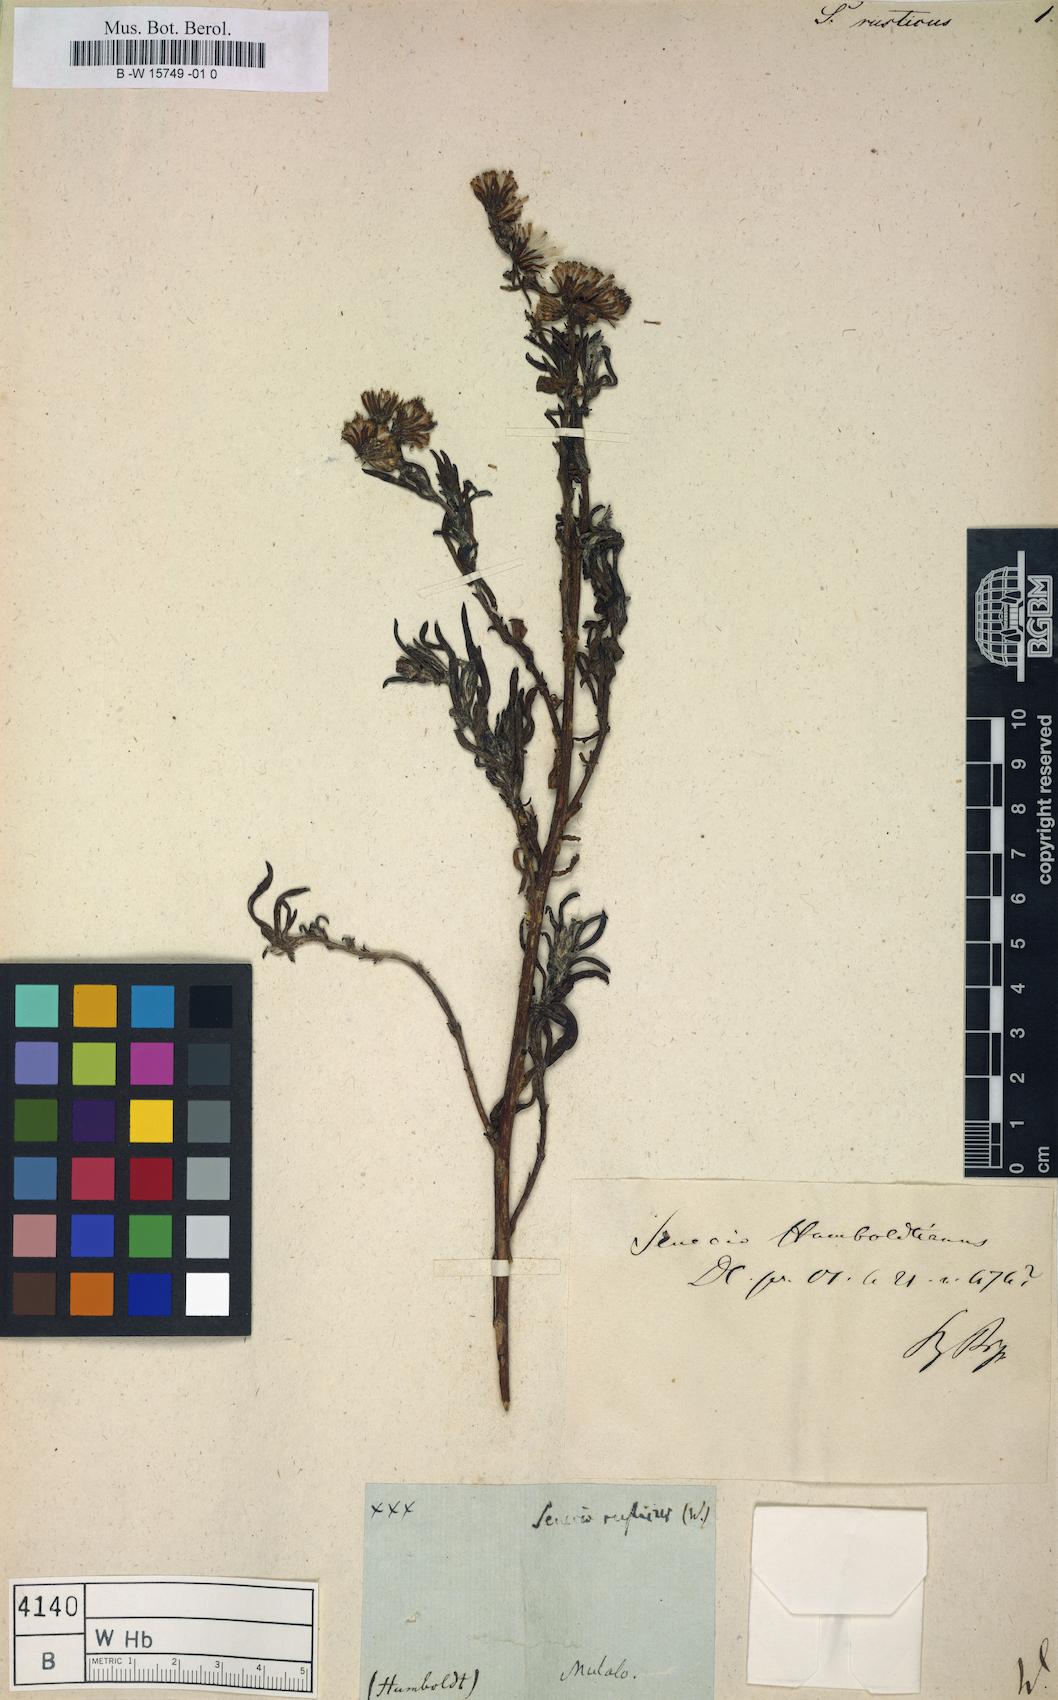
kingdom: Plantae
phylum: Tracheophyta
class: Magnoliopsida
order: Asterales
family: Asteraceae
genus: Senecio
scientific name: Senecio
